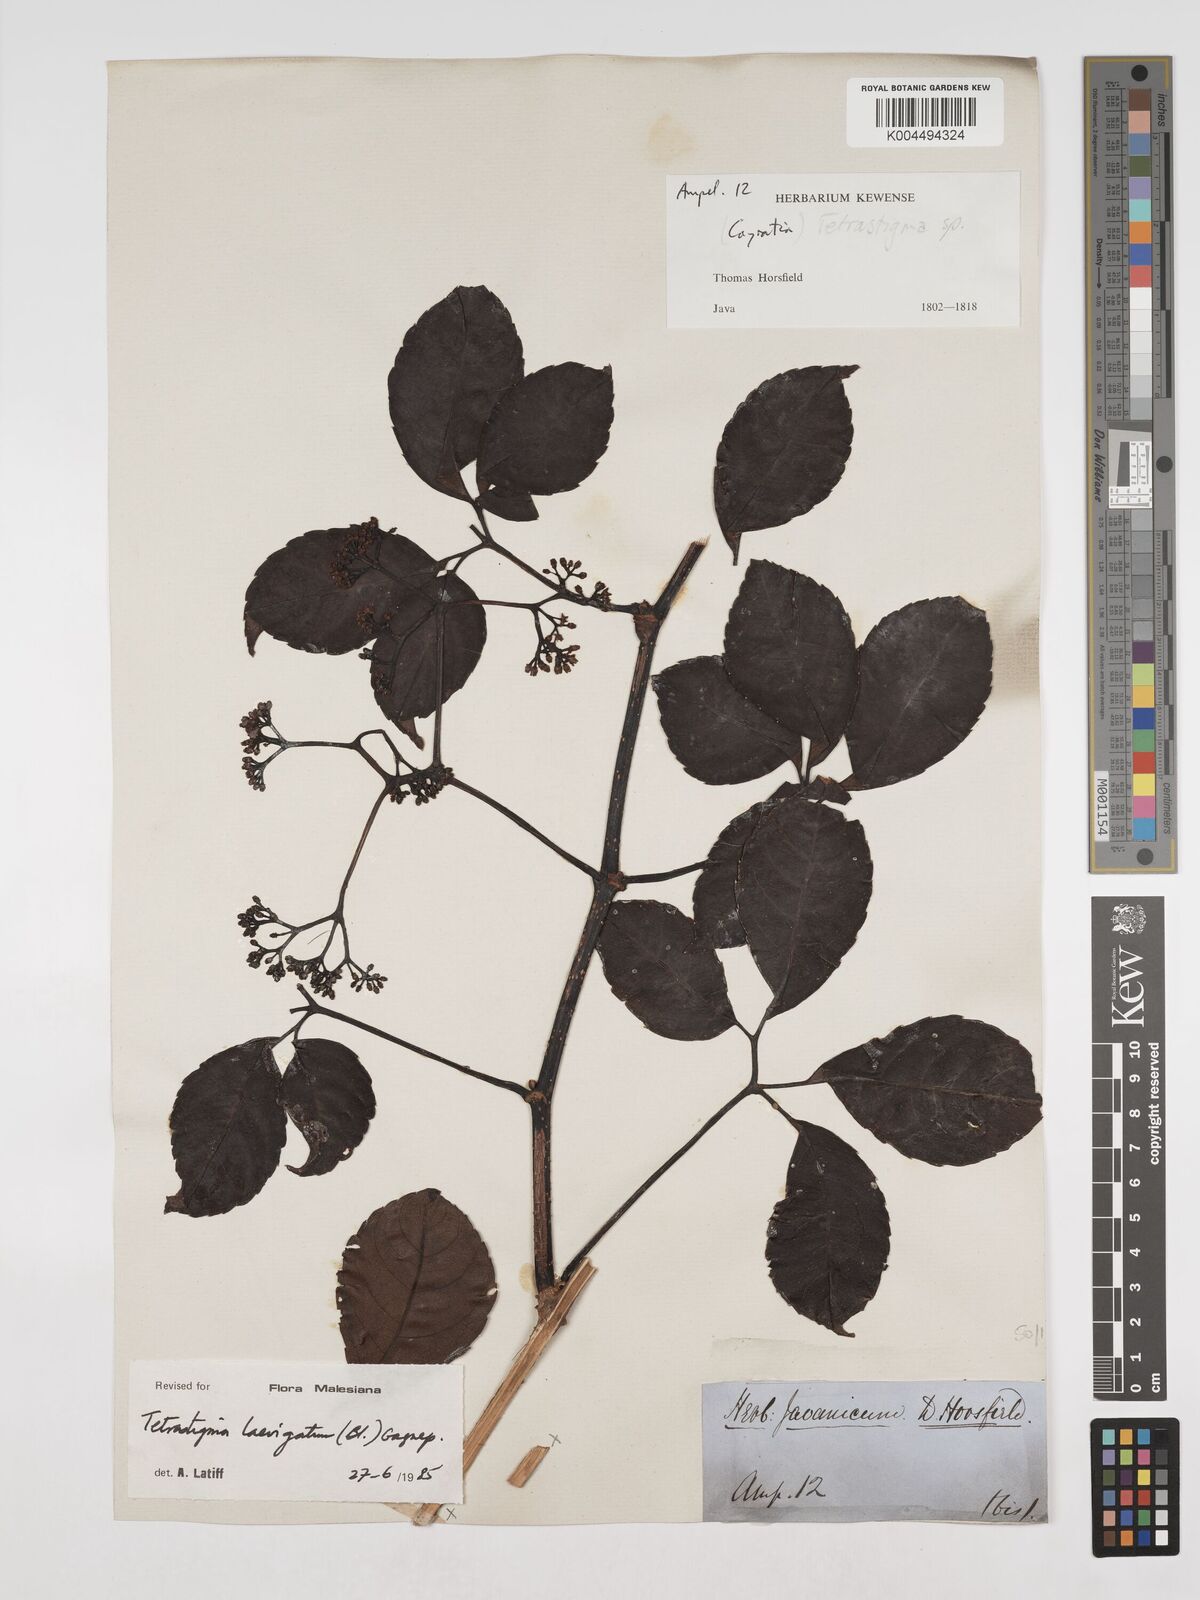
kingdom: Plantae
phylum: Tracheophyta
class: Magnoliopsida
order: Vitales
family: Vitaceae
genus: Tetrastigma
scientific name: Tetrastigma laevigatum
